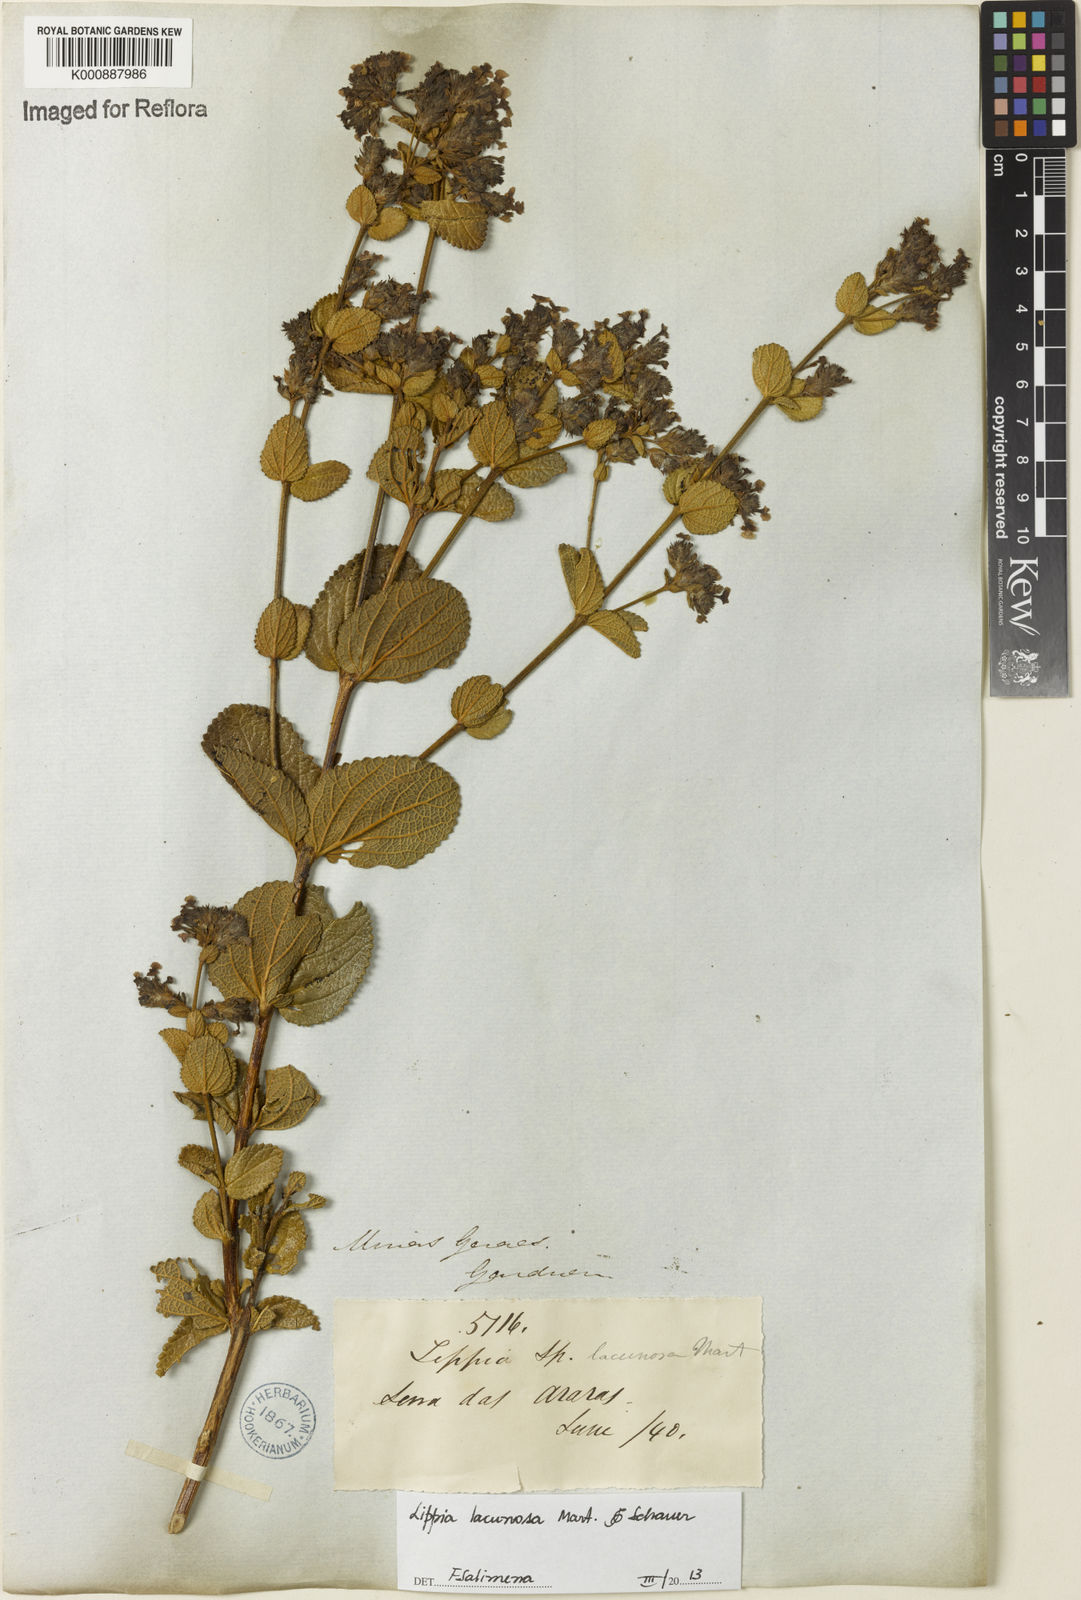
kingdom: Plantae
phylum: Tracheophyta
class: Magnoliopsida
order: Lamiales
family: Verbenaceae
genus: Lippia
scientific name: Lippia lacunosa
